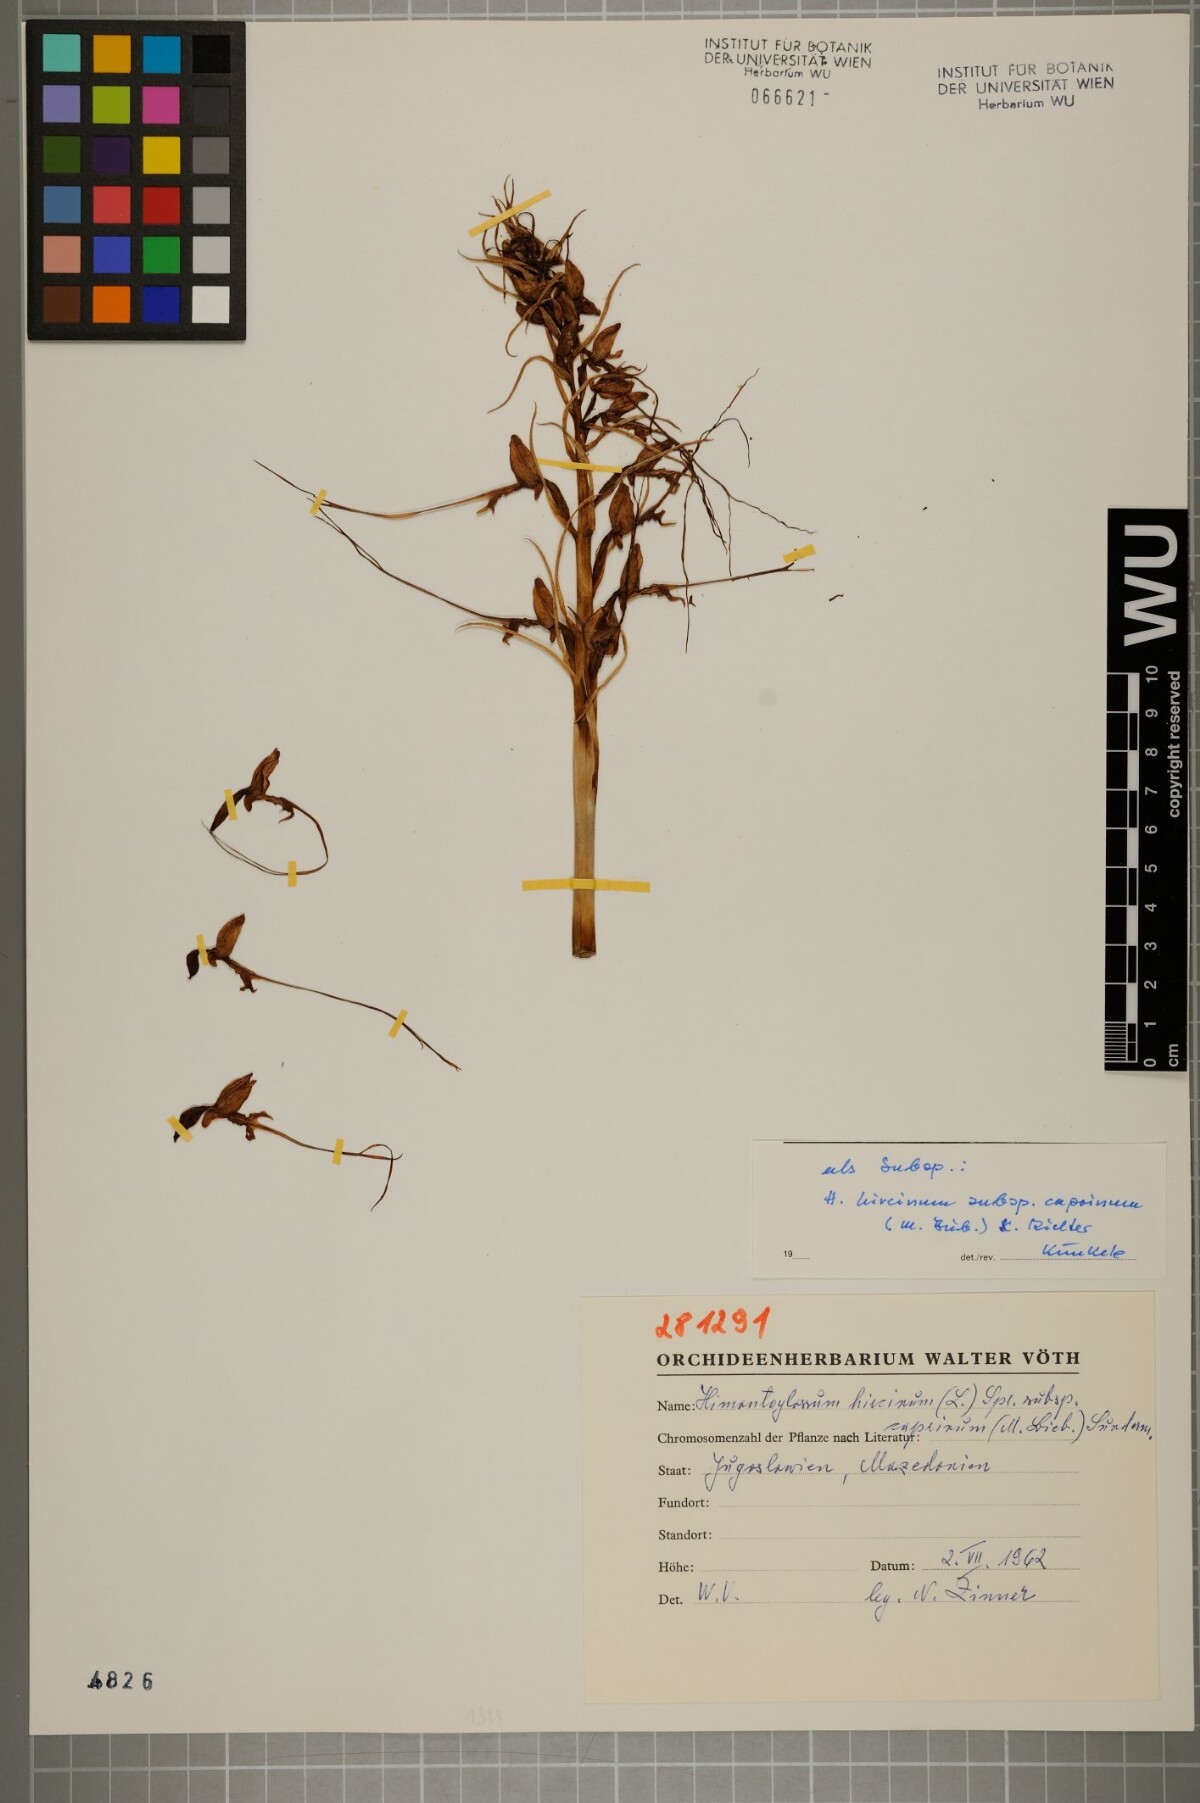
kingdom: Plantae
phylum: Tracheophyta
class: Liliopsida
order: Asparagales
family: Orchidaceae
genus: Himantoglossum
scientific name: Himantoglossum hircinum
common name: Lizard orchid
